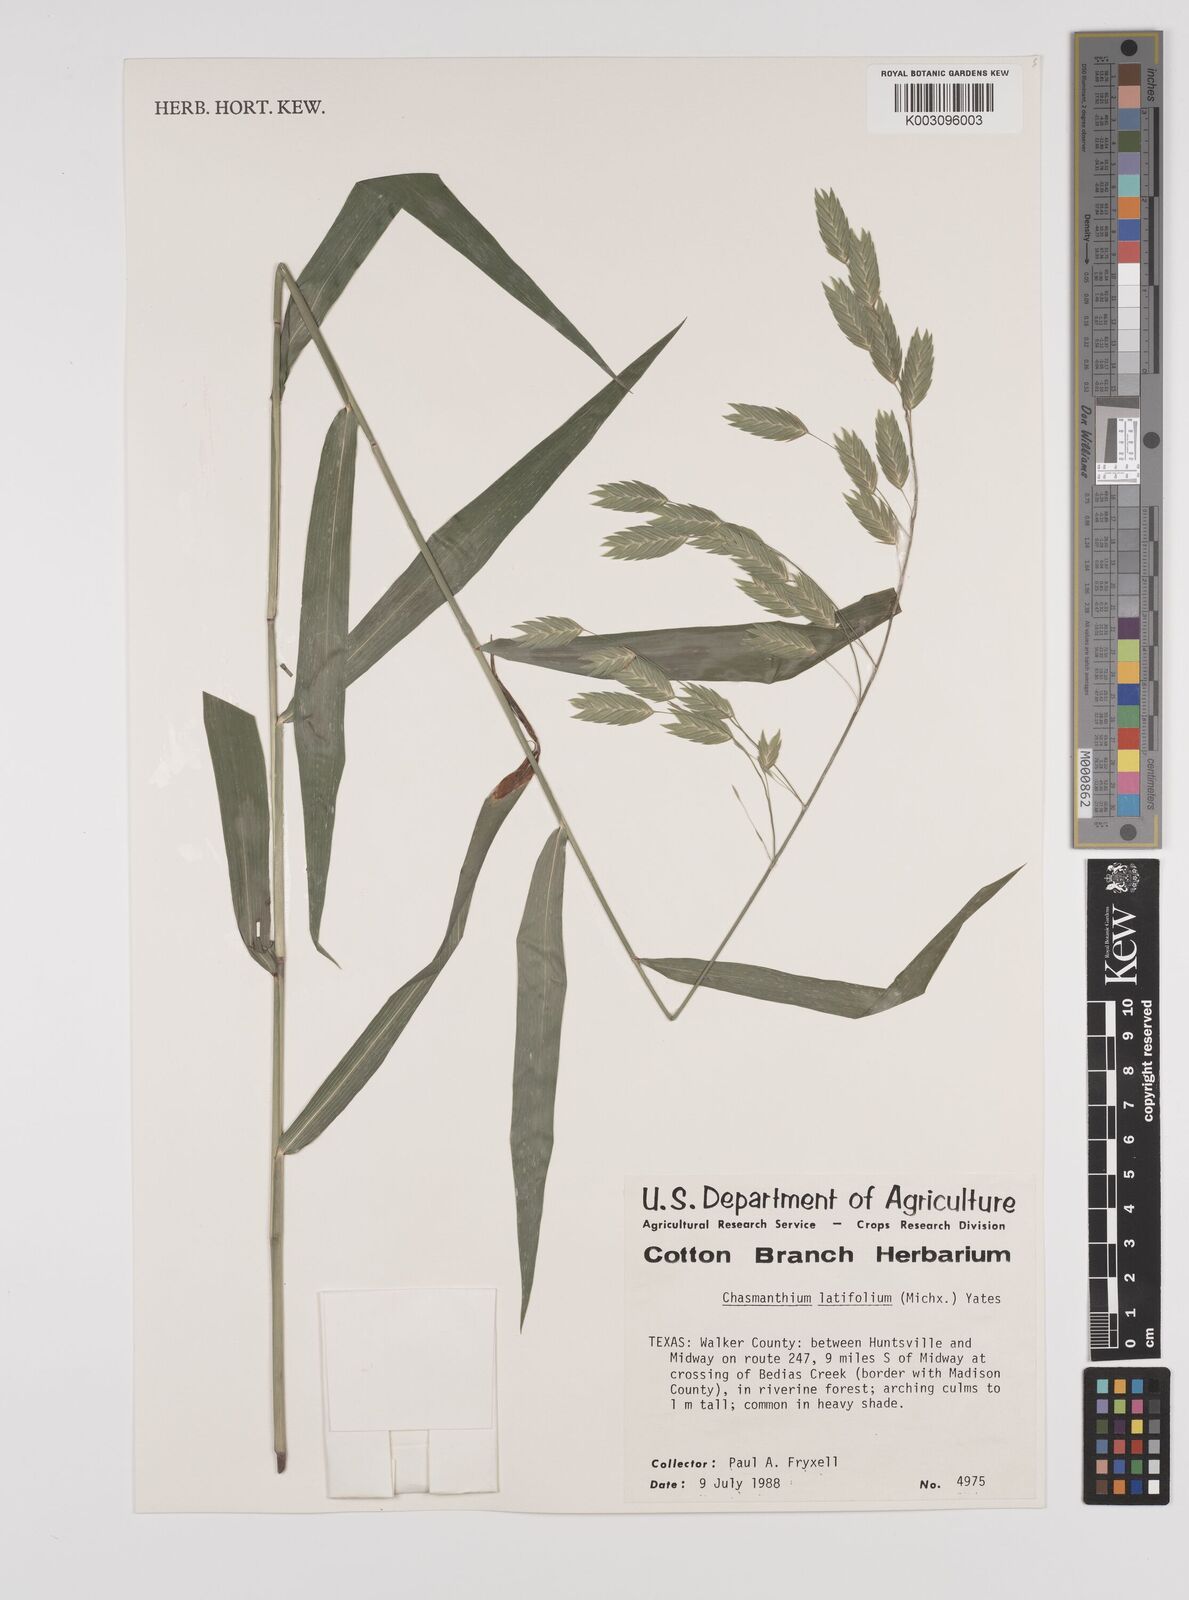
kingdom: Plantae
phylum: Tracheophyta
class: Liliopsida
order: Poales
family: Poaceae
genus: Chasmanthium
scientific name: Chasmanthium latifolium
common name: Broad-leaved chasmanthium
